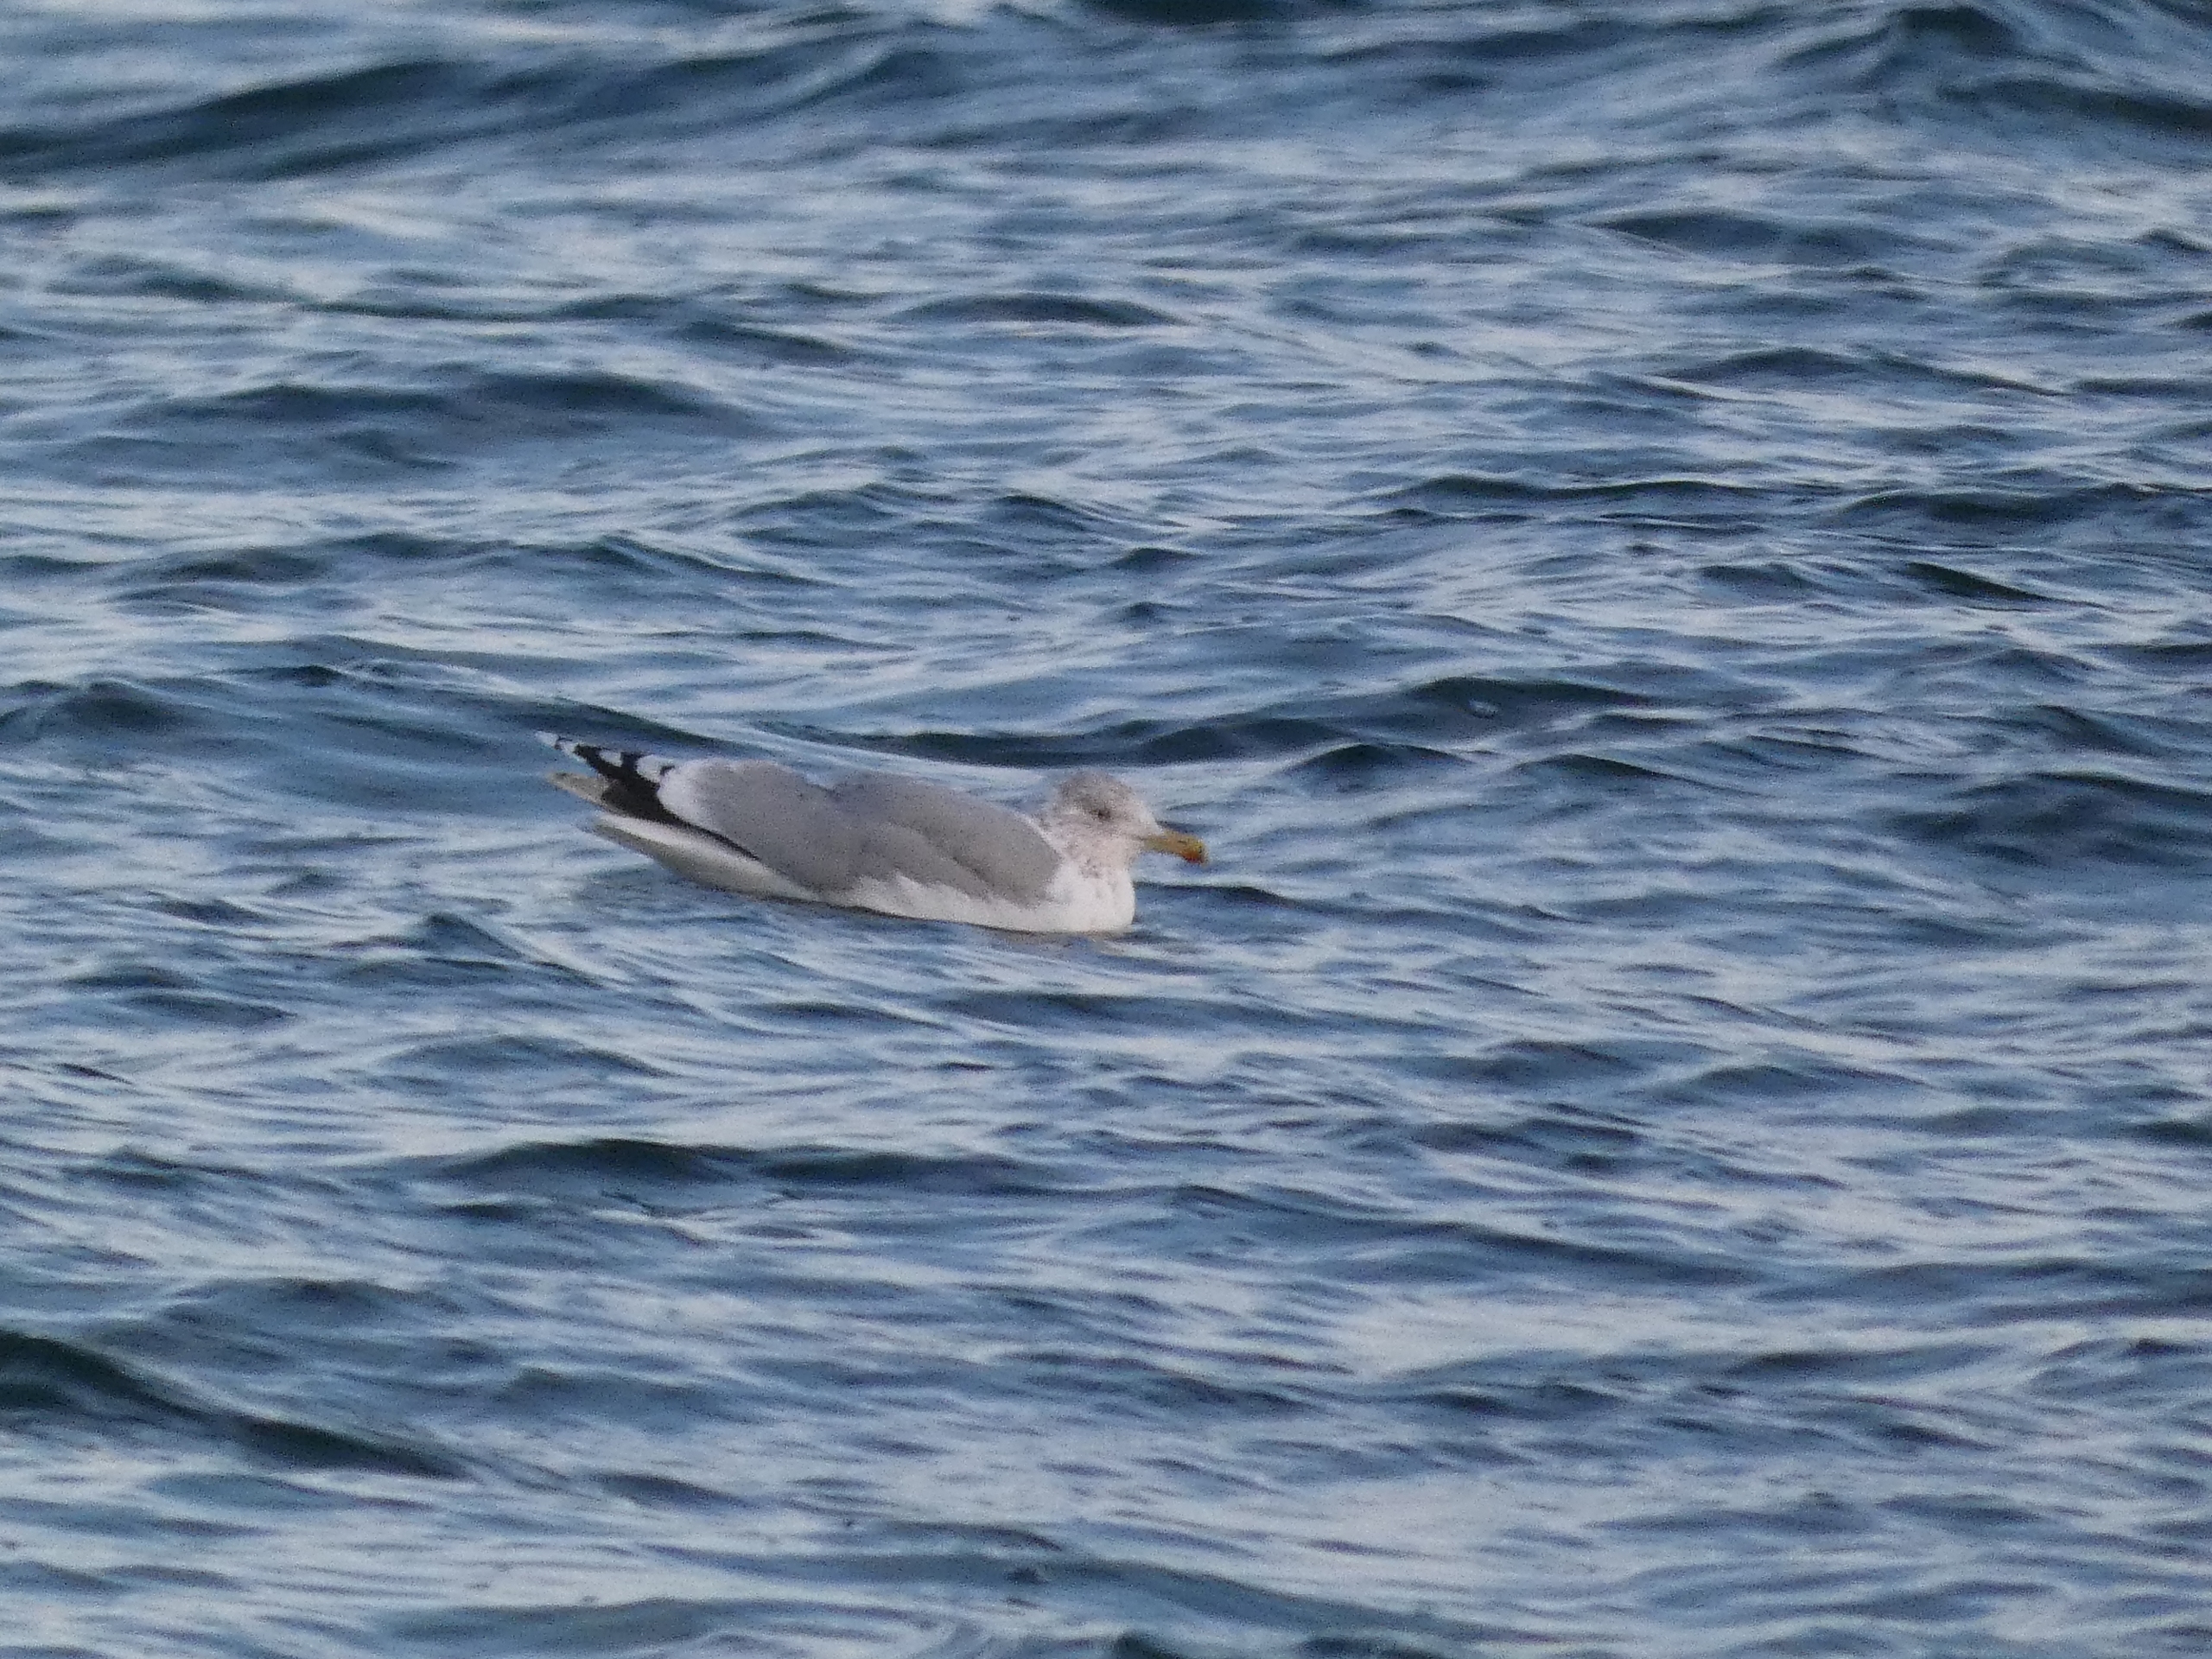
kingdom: Animalia
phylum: Chordata
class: Aves
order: Charadriiformes
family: Laridae
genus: Larus
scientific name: Larus argentatus
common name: Sølvmåge
